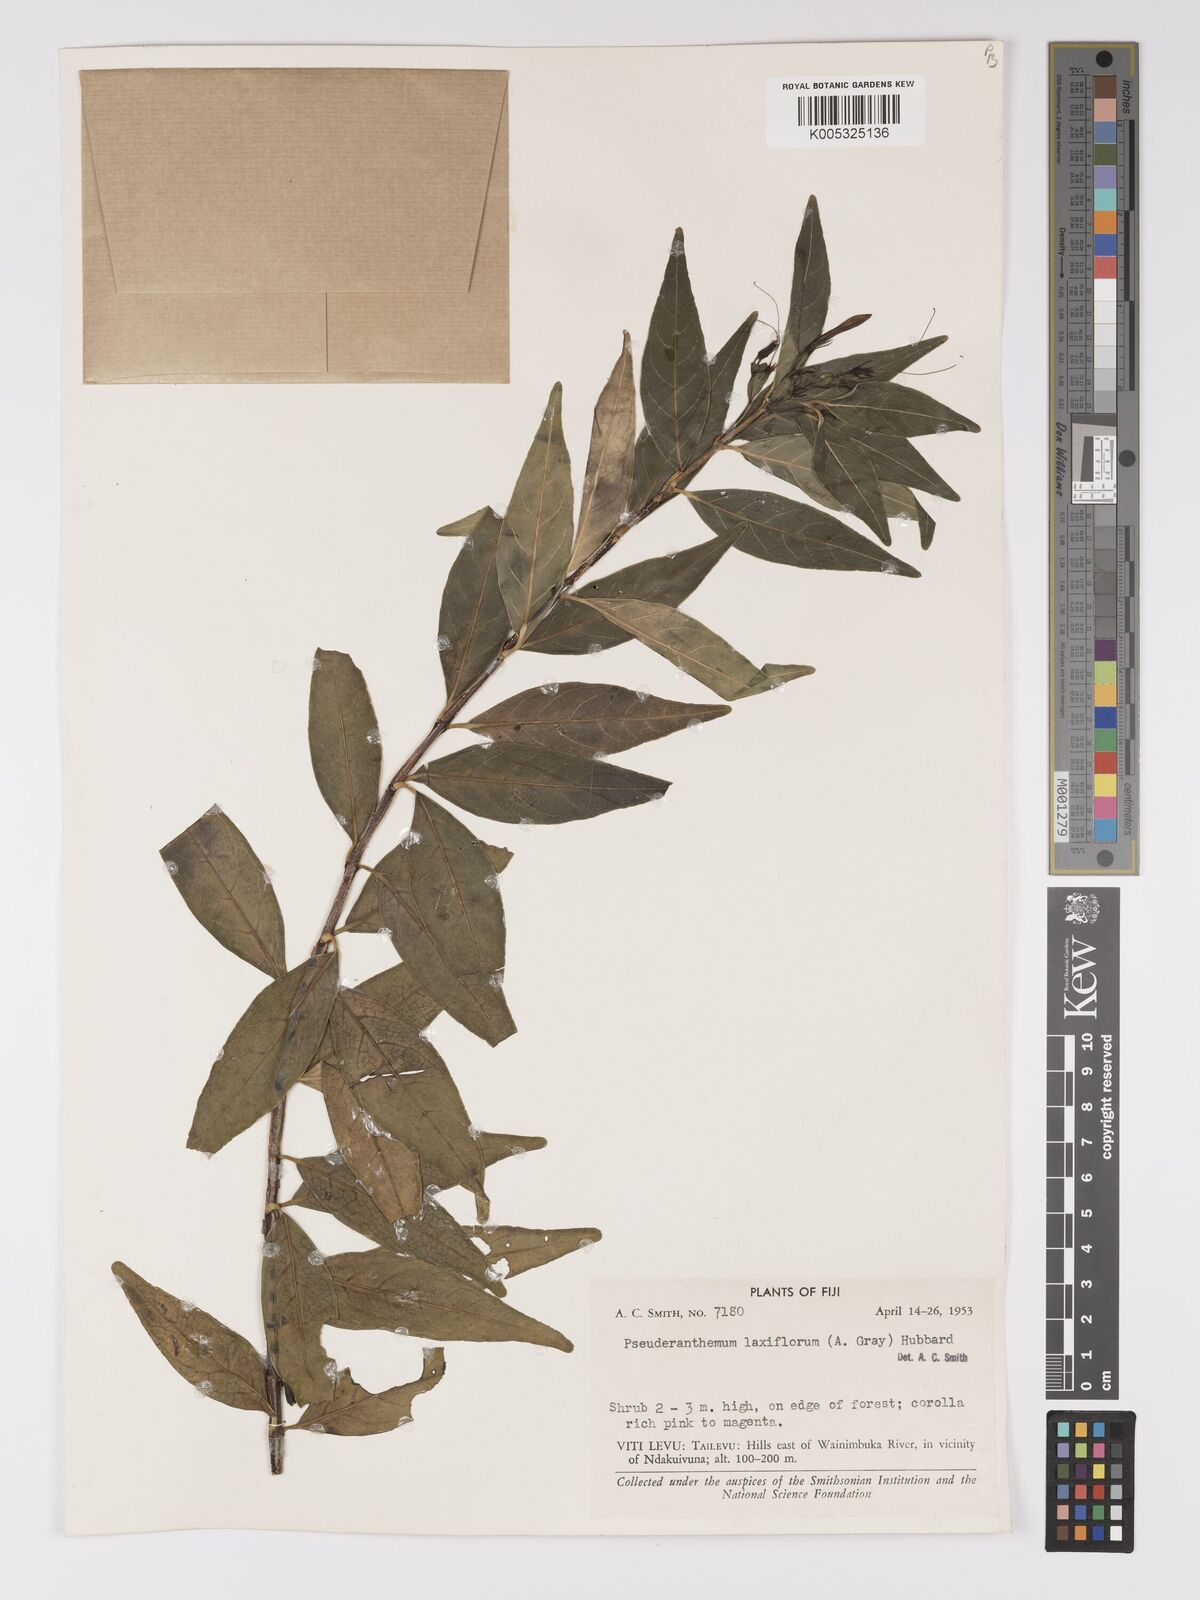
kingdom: Plantae
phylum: Tracheophyta
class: Magnoliopsida
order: Lamiales
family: Acanthaceae
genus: Pseuderanthemum
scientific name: Pseuderanthemum laxiflorum
